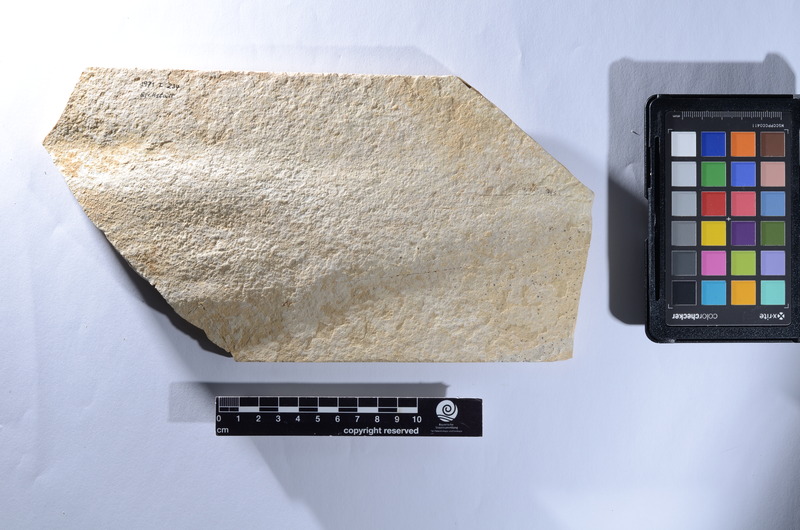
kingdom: Animalia
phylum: Chordata
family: Aspidorhynchidae
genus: Aspidorhynchus
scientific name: Aspidorhynchus
